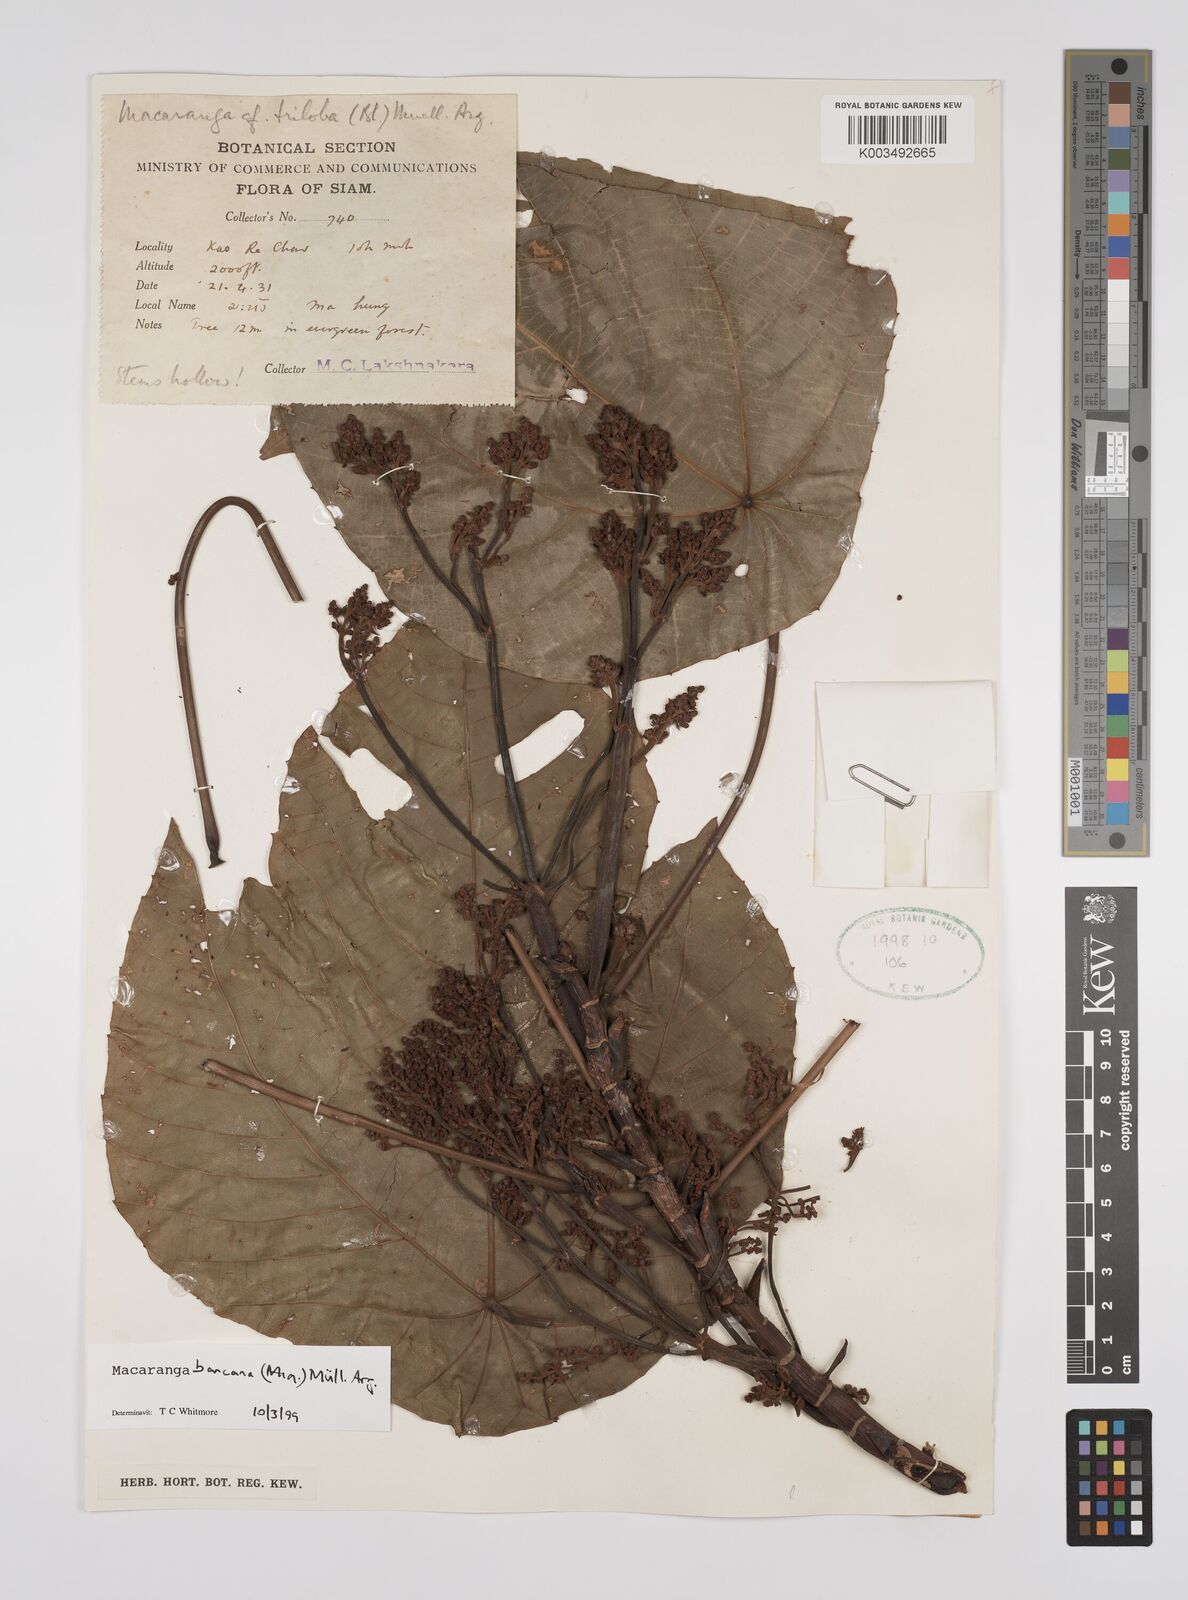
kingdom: Plantae
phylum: Tracheophyta
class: Magnoliopsida
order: Malpighiales
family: Euphorbiaceae
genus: Macaranga
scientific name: Macaranga bancana
